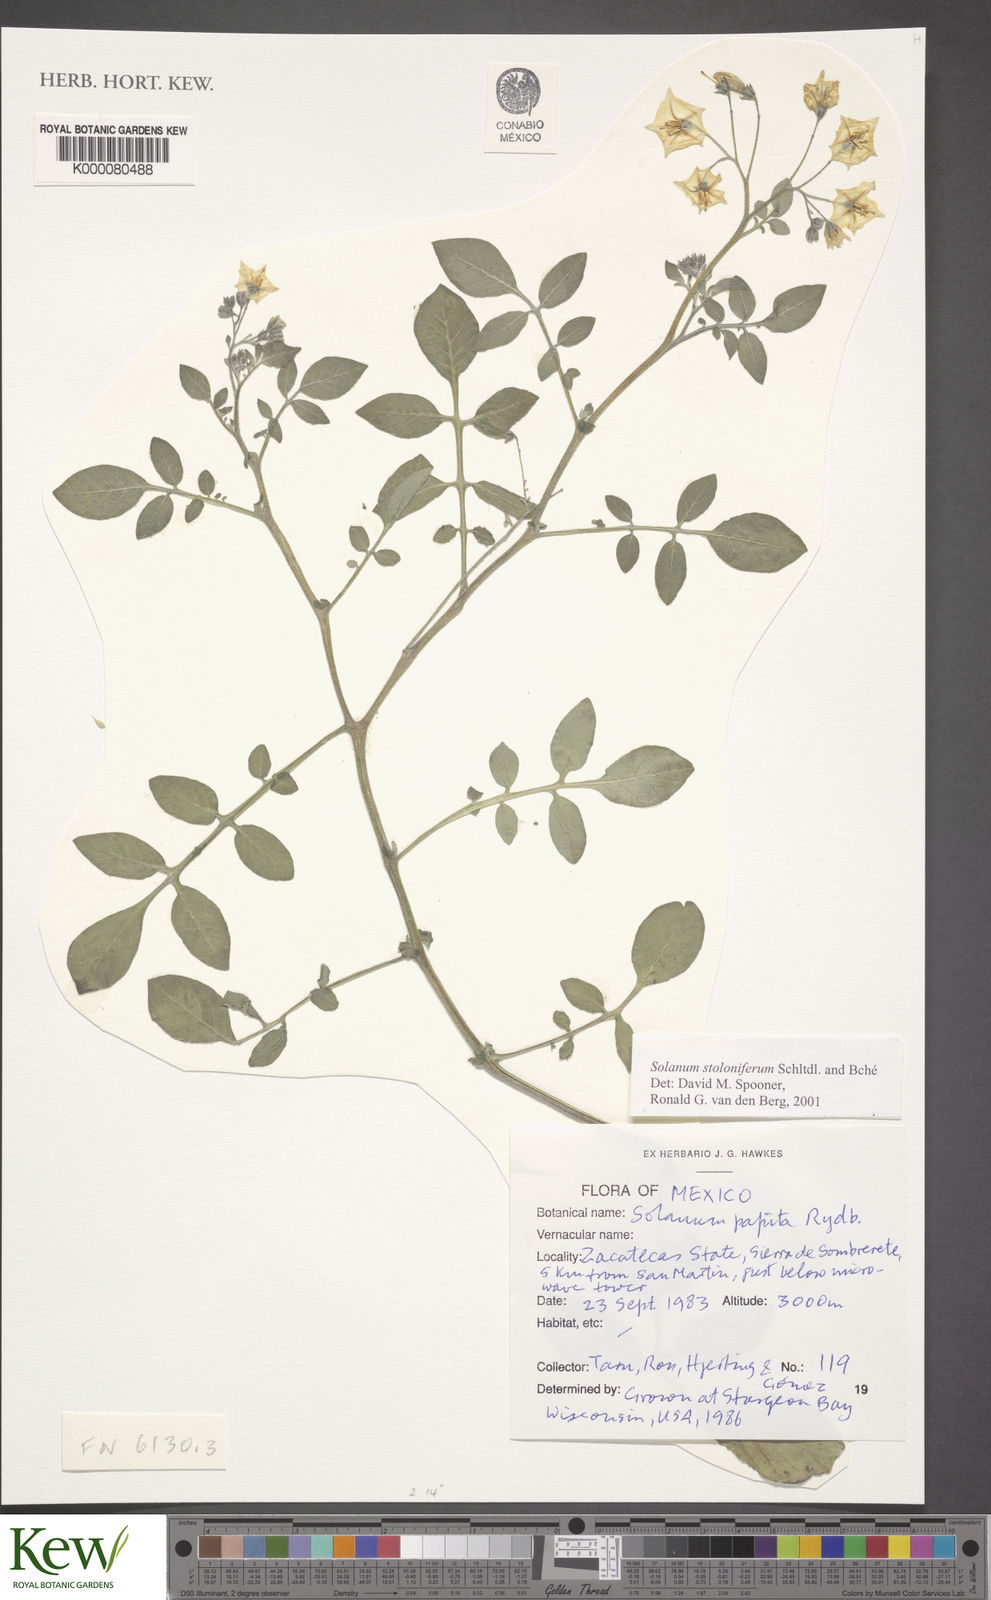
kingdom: Plantae
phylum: Tracheophyta
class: Magnoliopsida
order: Solanales
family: Solanaceae
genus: Solanum
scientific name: Solanum stoloniferum
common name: Fendler's nighshade
